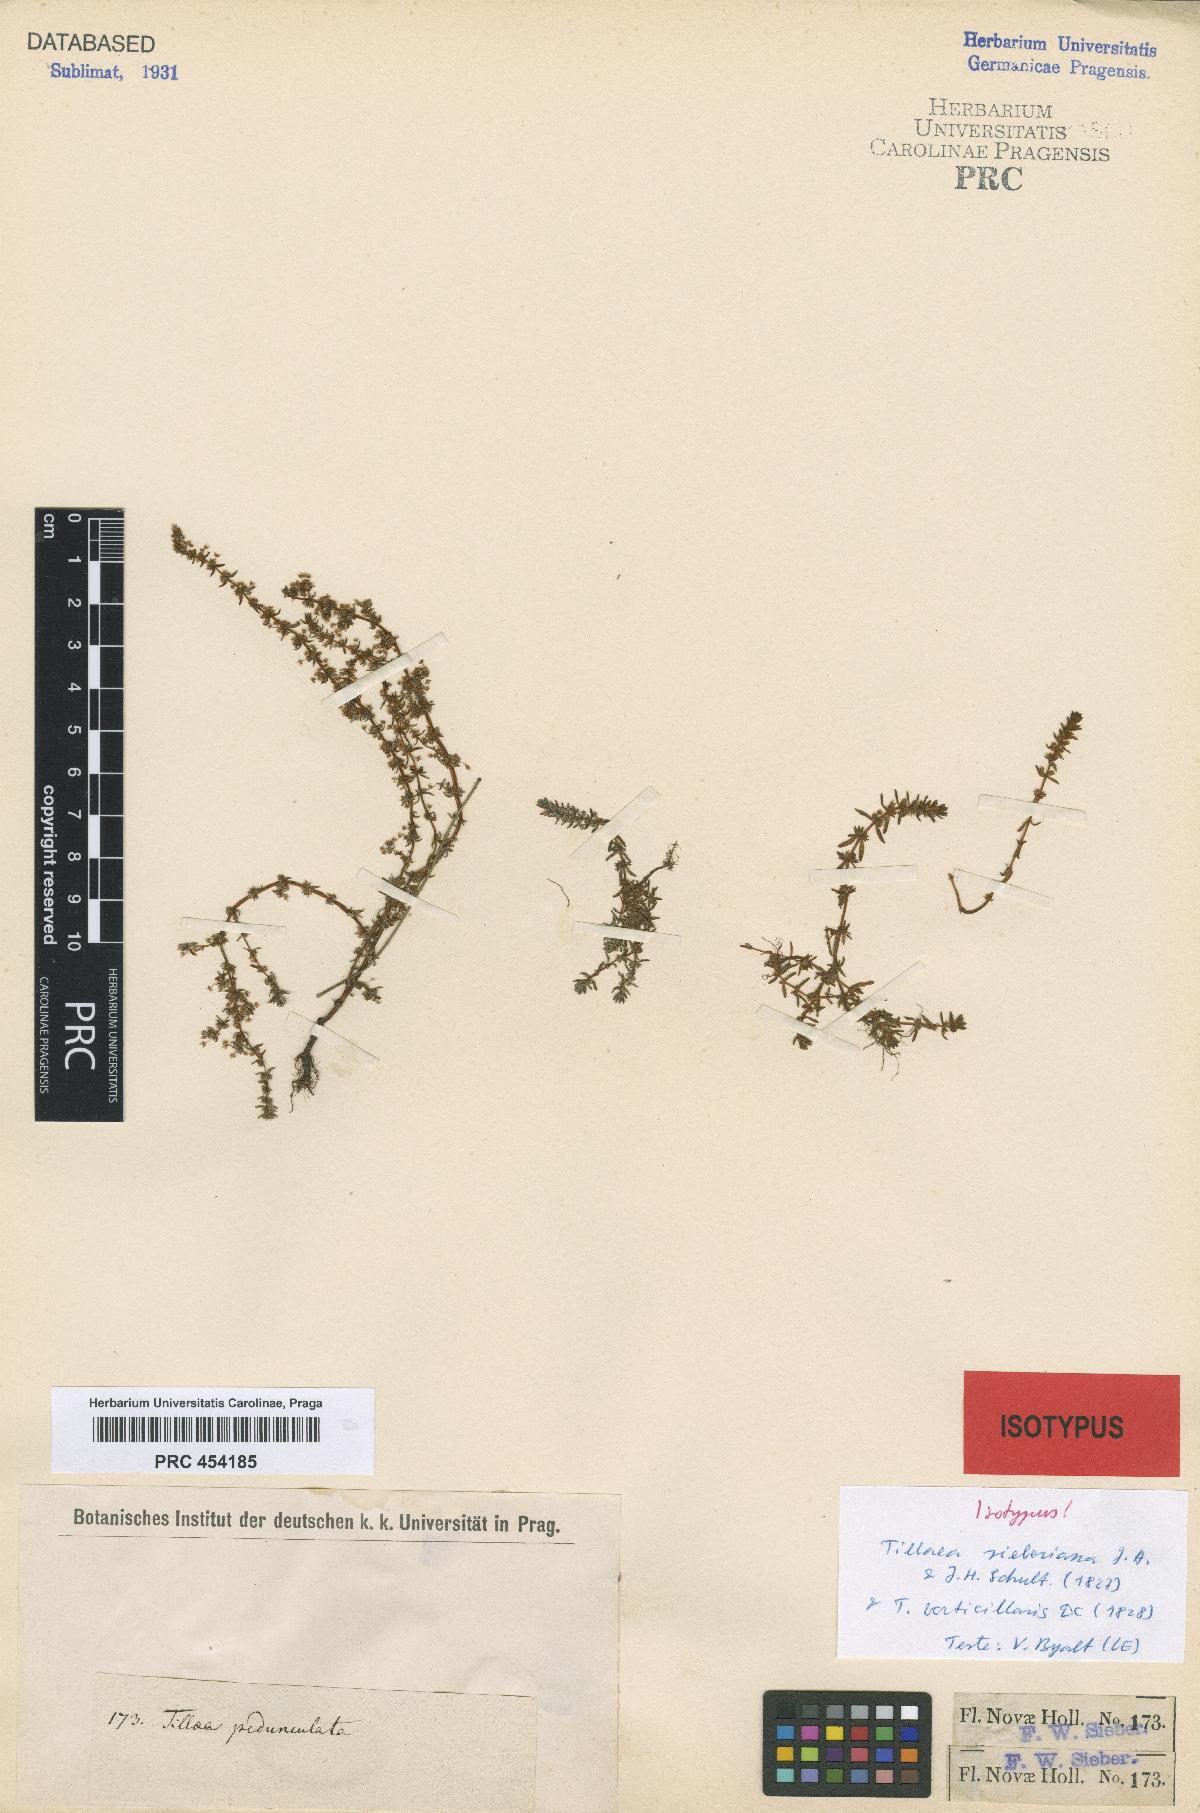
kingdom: Plantae
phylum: Tracheophyta
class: Magnoliopsida
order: Saxifragales
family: Crassulaceae
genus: Crassula
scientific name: Crassula sieberiana
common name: Siberian pygmyweed
